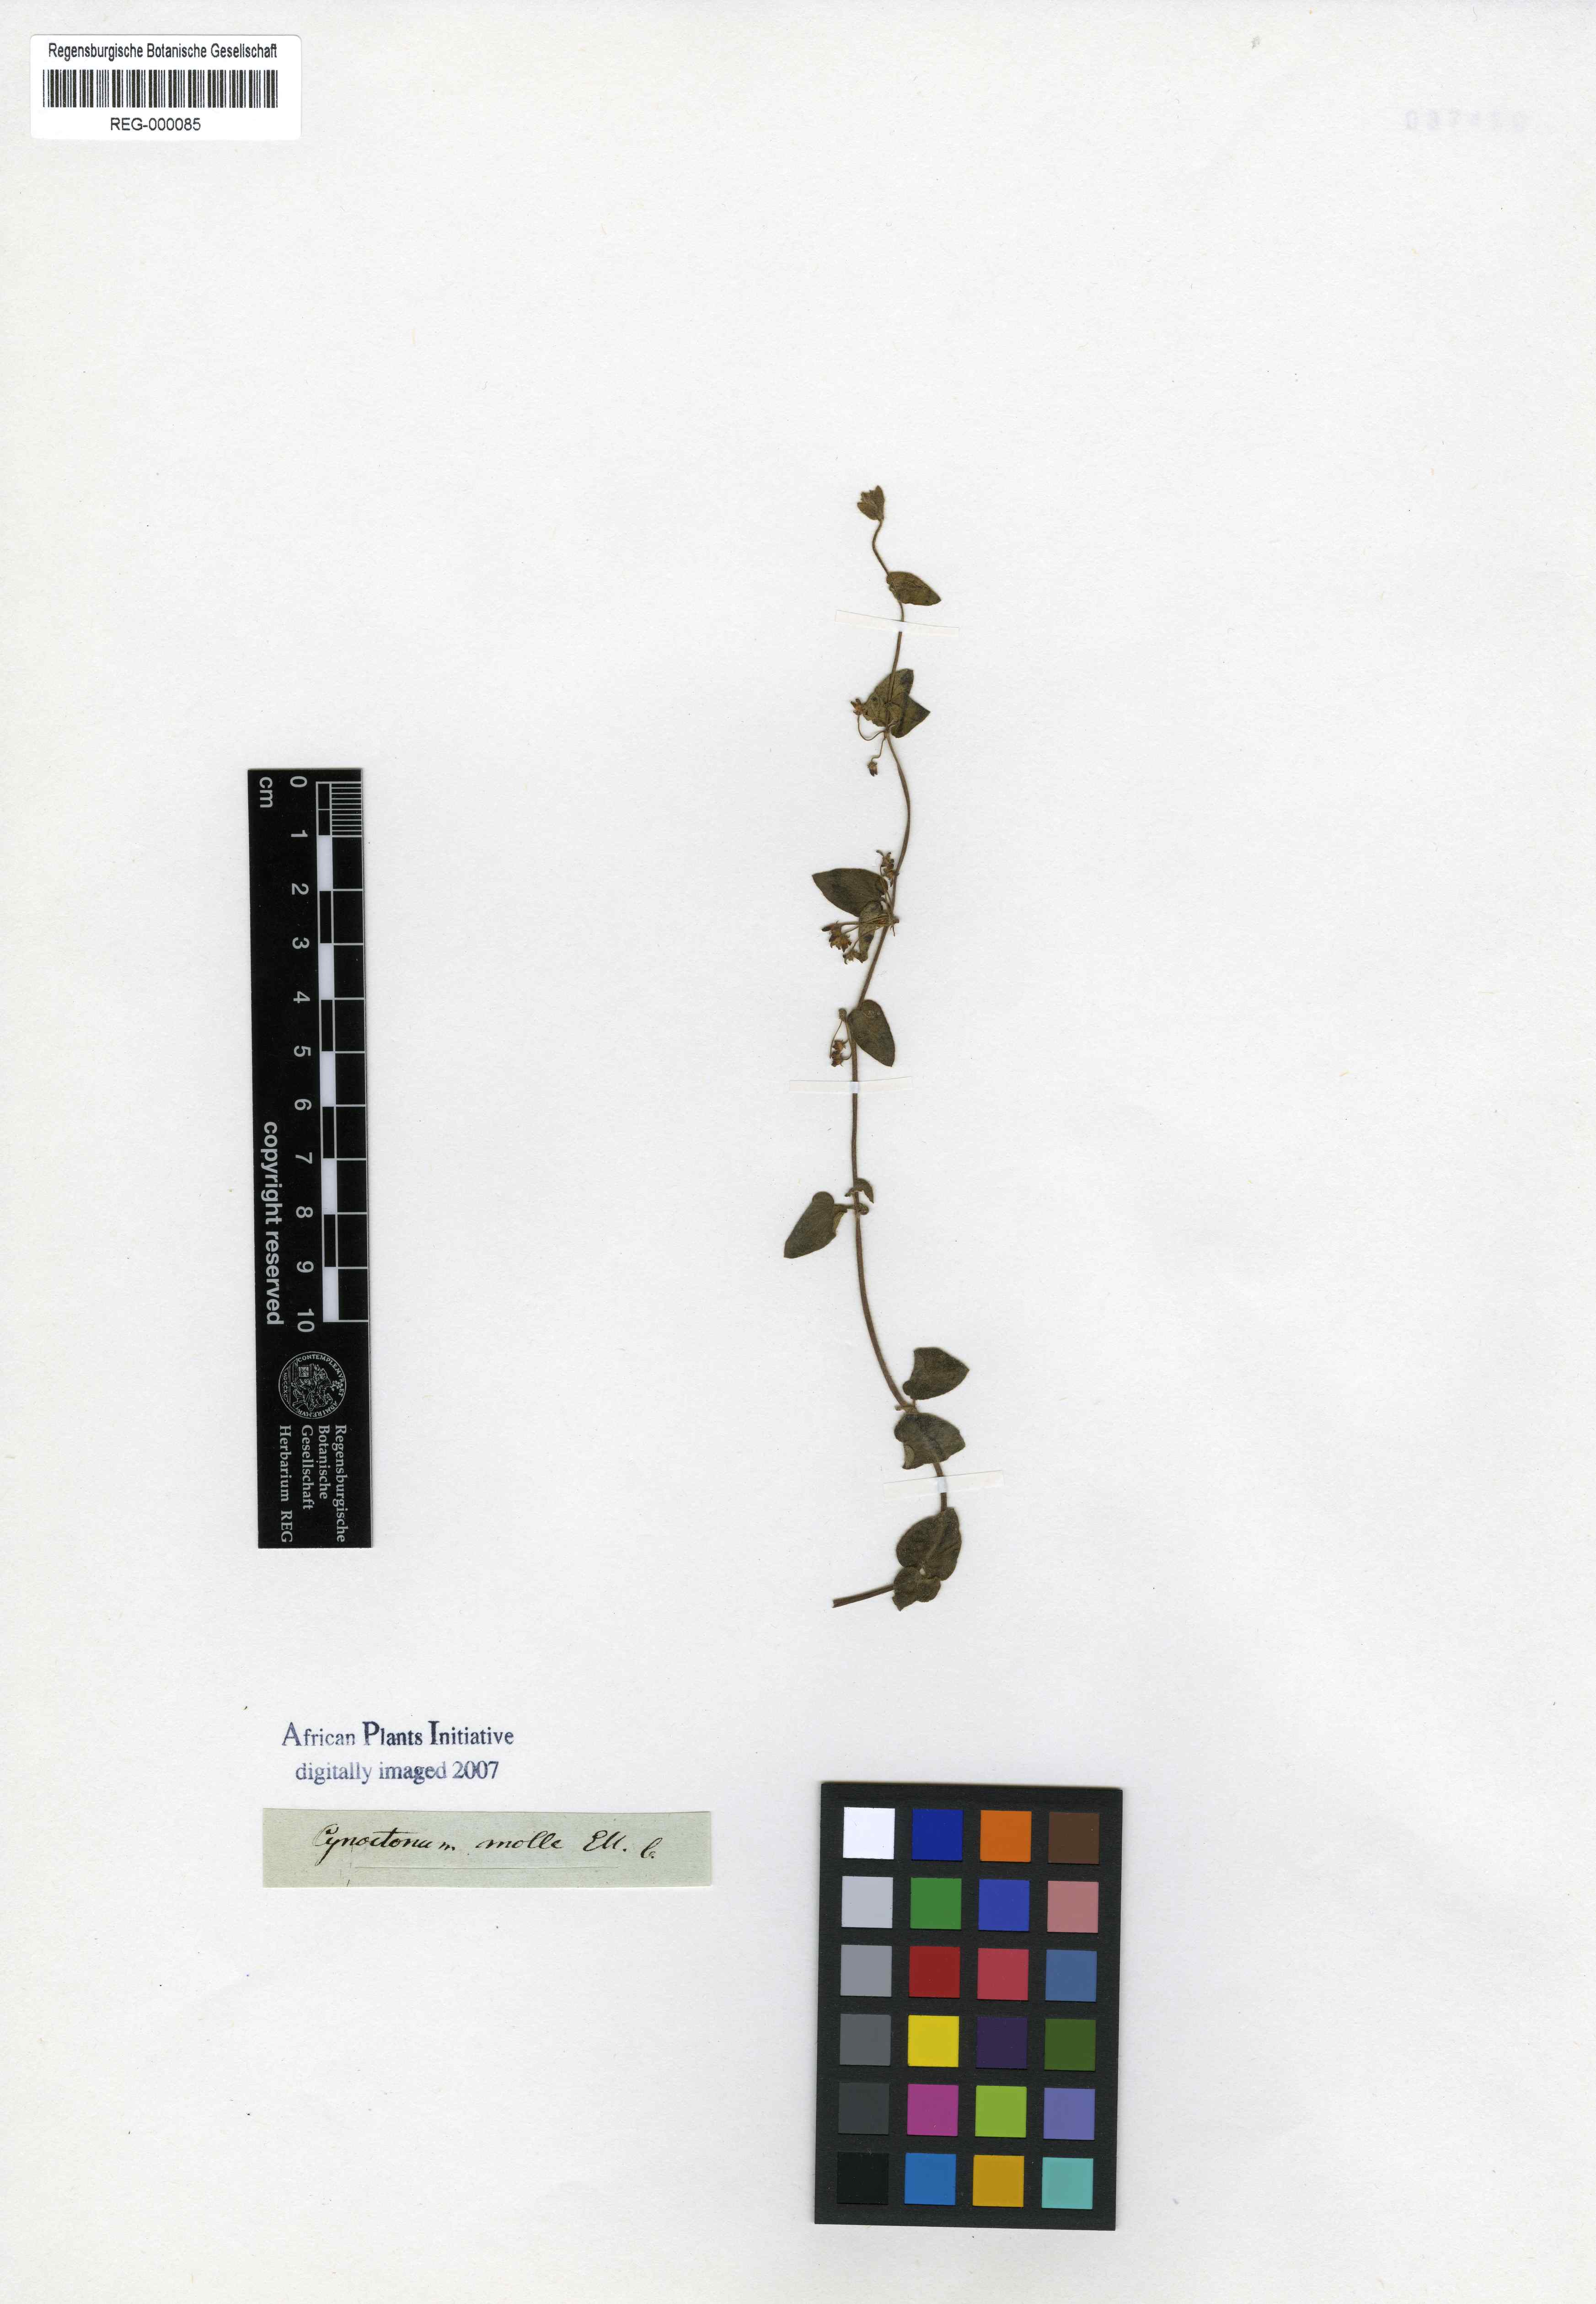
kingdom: Plantae
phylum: Tracheophyta
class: Magnoliopsida
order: Gentianales
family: Apocynaceae
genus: Anisotoma
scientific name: Anisotoma cordifolia
